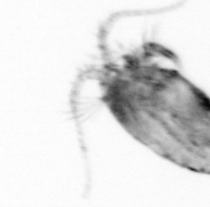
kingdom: Animalia
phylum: Arthropoda
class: Copepoda
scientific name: Copepoda
